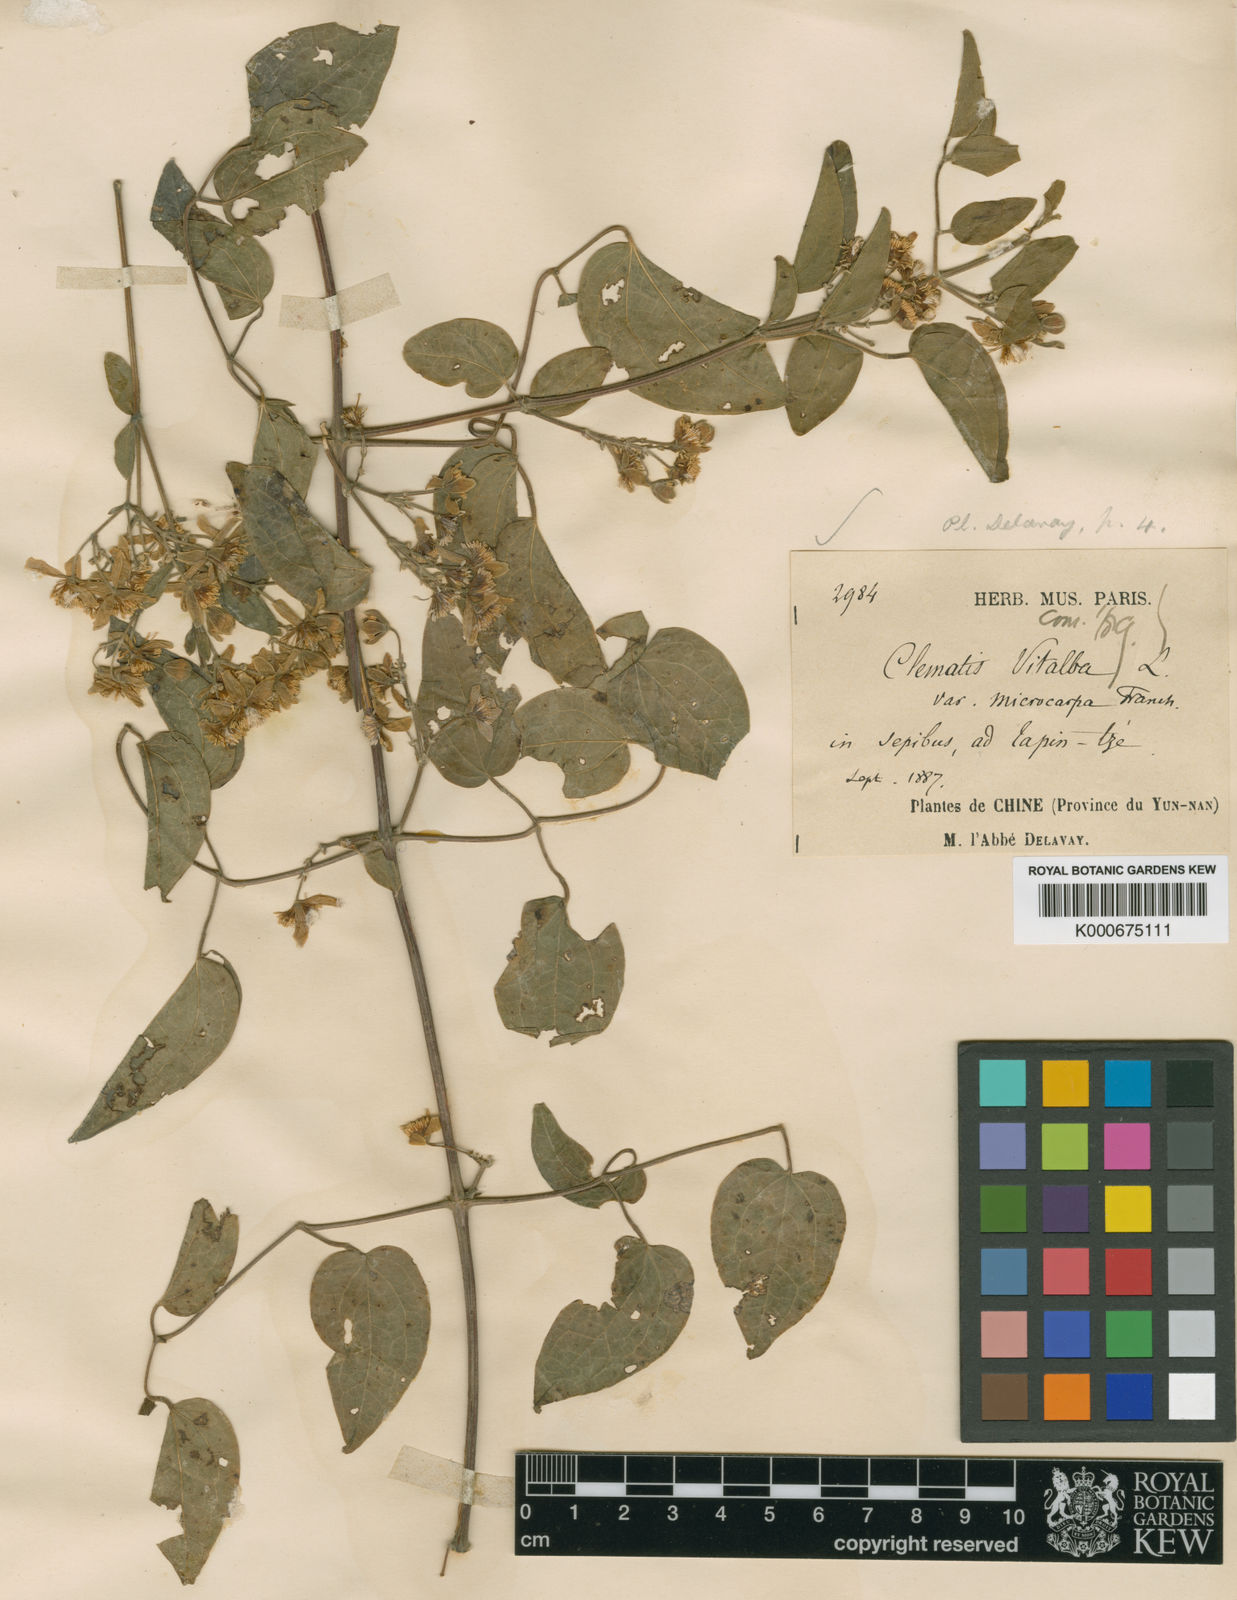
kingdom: Plantae
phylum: Tracheophyta
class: Magnoliopsida
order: Ranunculales
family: Ranunculaceae
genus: Clematis
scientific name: Clematis peterae
